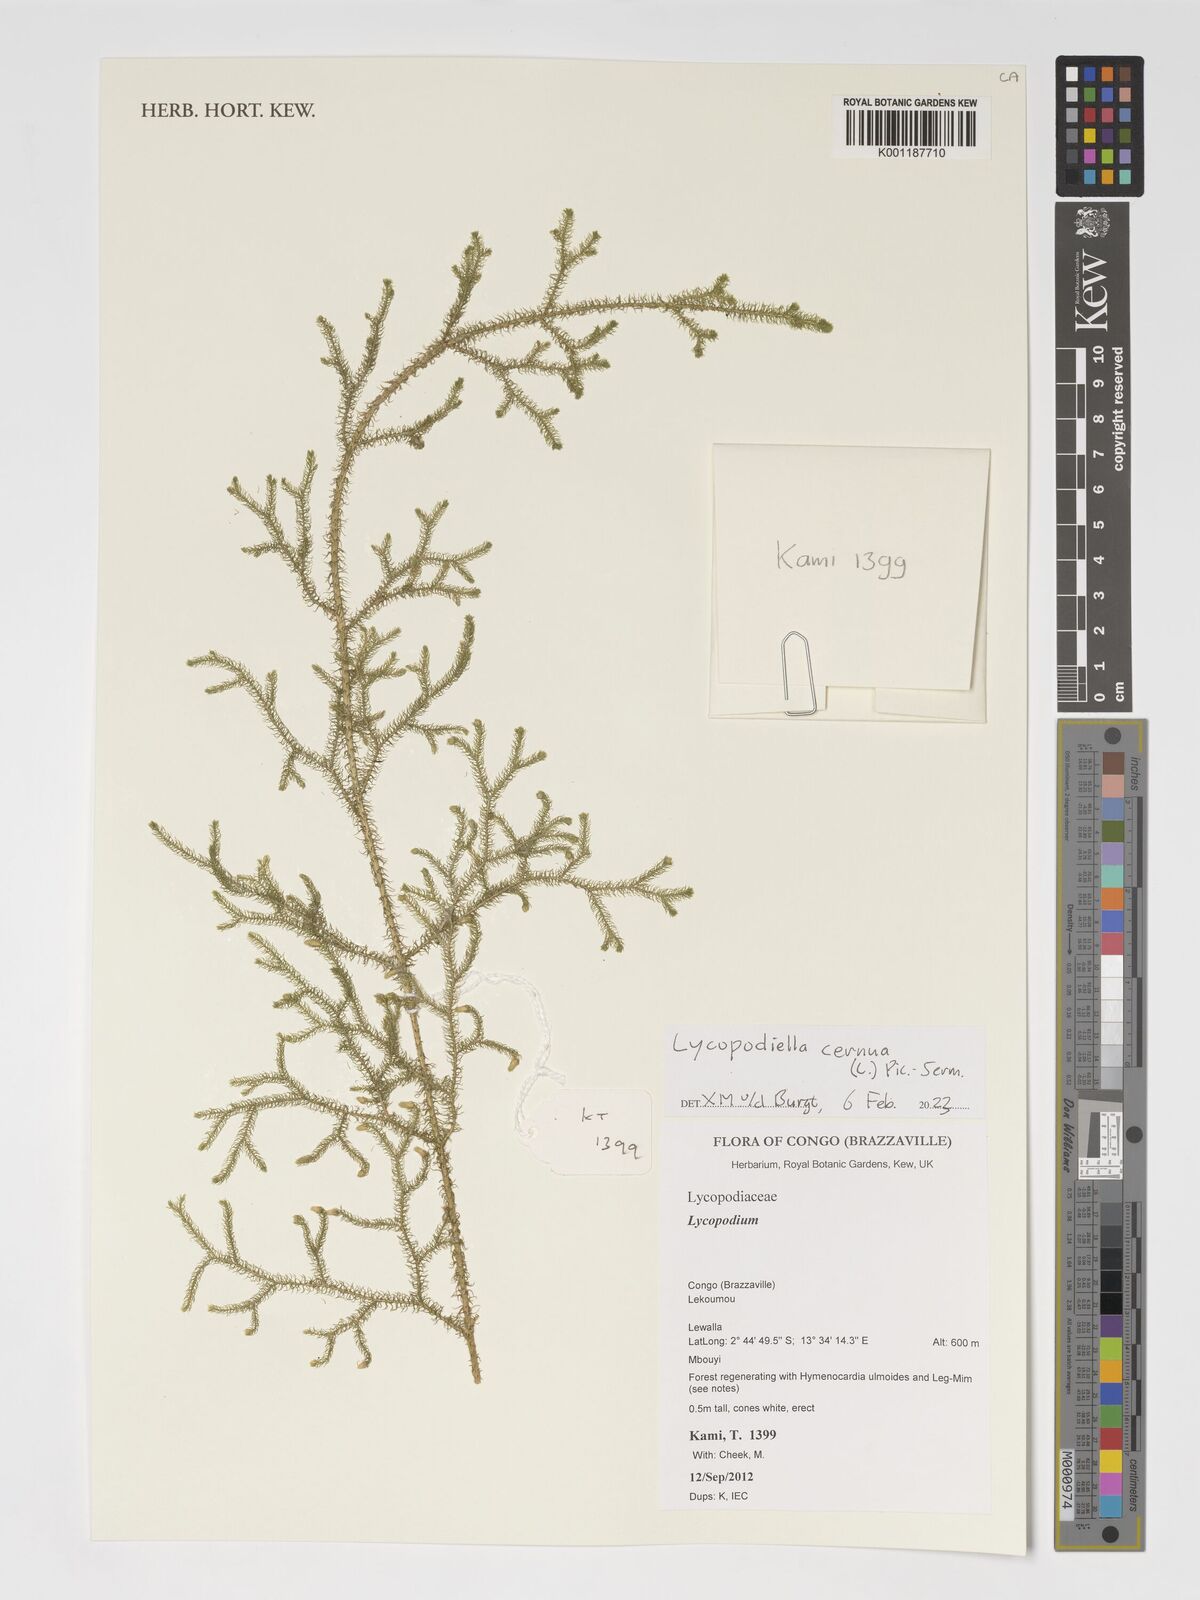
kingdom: Plantae
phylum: Tracheophyta
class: Lycopodiopsida
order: Lycopodiales
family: Lycopodiaceae
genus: Palhinhaea
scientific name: Palhinhaea cernua
